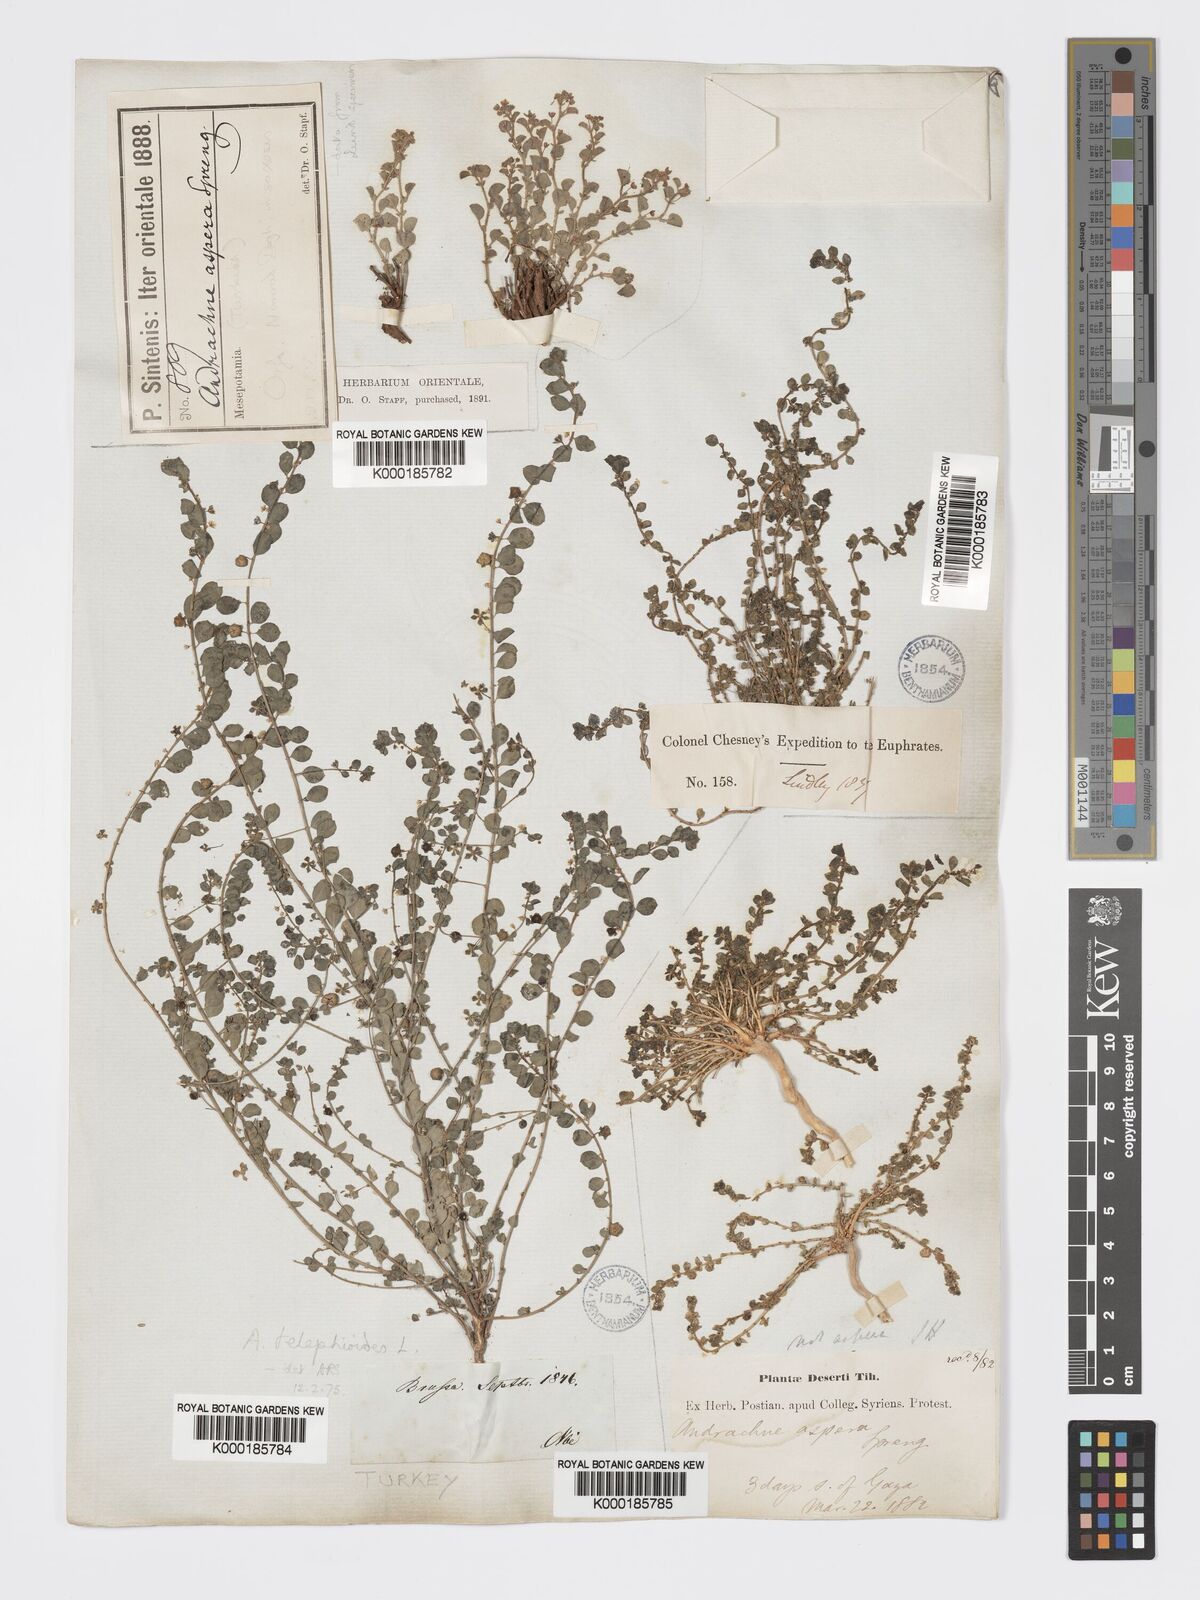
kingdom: Plantae
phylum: Tracheophyta
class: Magnoliopsida
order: Malpighiales
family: Phyllanthaceae
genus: Andrachne
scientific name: Andrachne aspera
